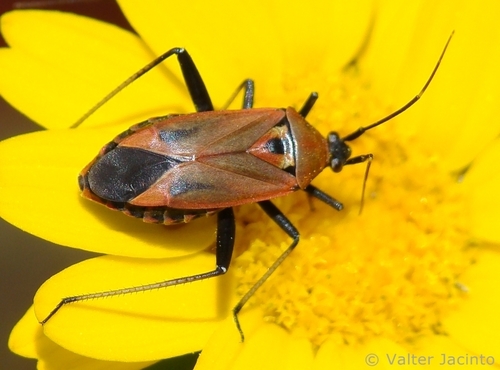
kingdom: Animalia
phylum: Arthropoda
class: Insecta
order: Hemiptera
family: Miridae
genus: Calocoris
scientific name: Calocoris nemoralis
